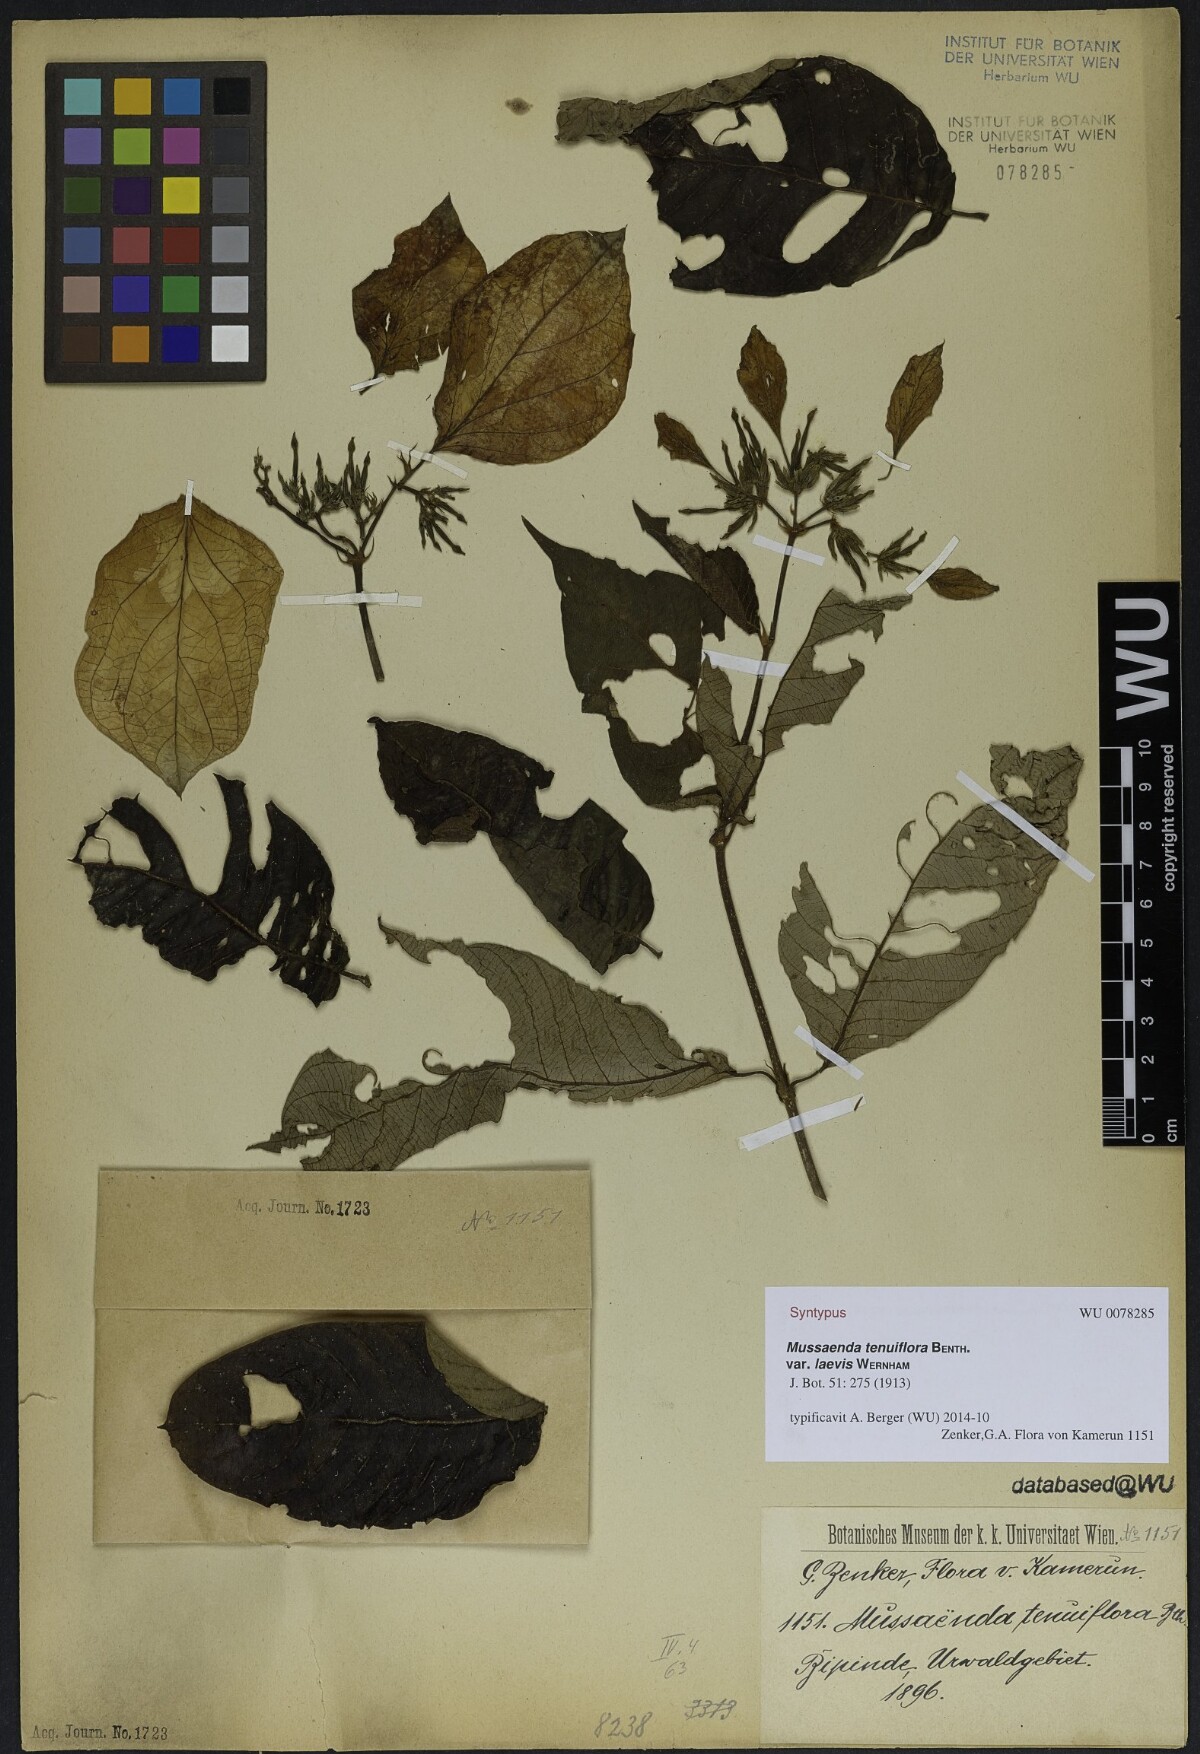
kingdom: Plantae
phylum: Tracheophyta
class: Magnoliopsida
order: Gentianales
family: Rubiaceae
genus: Mussaenda
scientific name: Mussaenda tenuiflora
